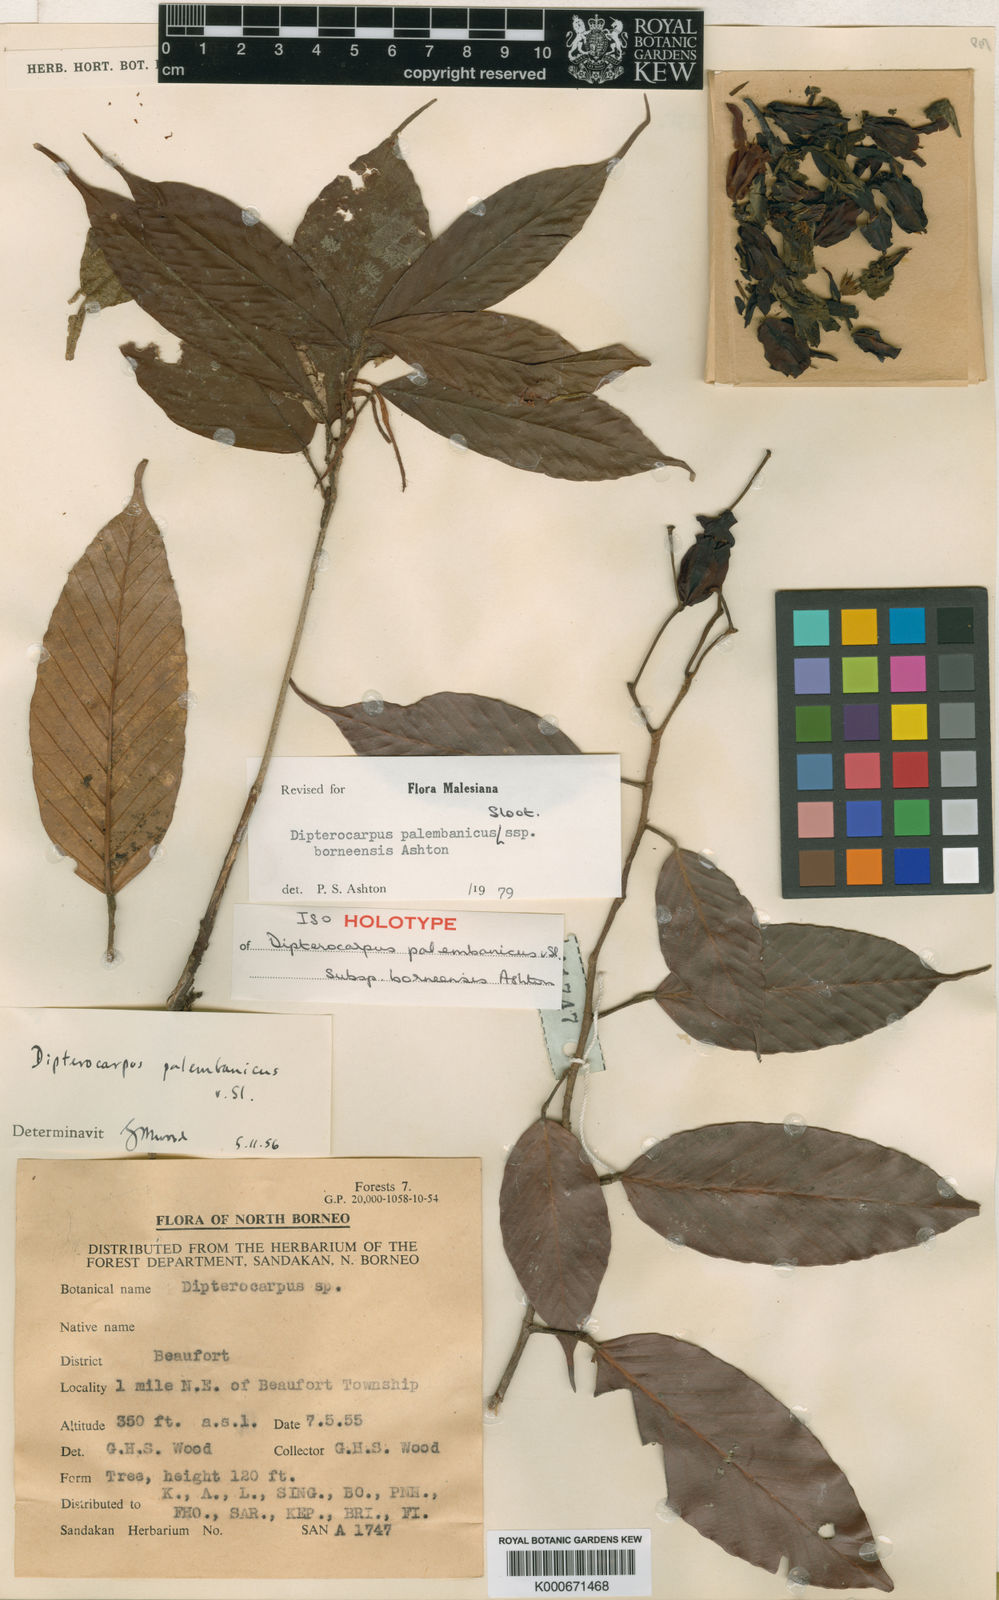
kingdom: Plantae
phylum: Tracheophyta
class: Magnoliopsida
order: Malvales
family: Dipterocarpaceae
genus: Dipterocarpus
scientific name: Dipterocarpus palembanicus
